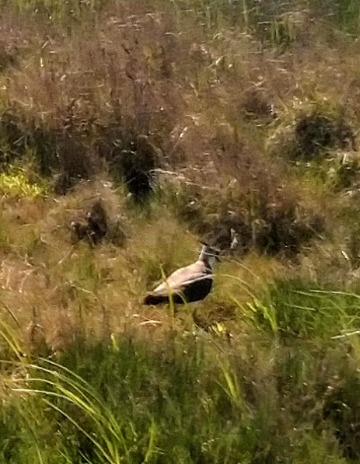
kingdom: Animalia
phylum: Chordata
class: Aves
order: Charadriiformes
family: Charadriidae
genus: Vanellus
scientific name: Vanellus vanellus
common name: Vibe
